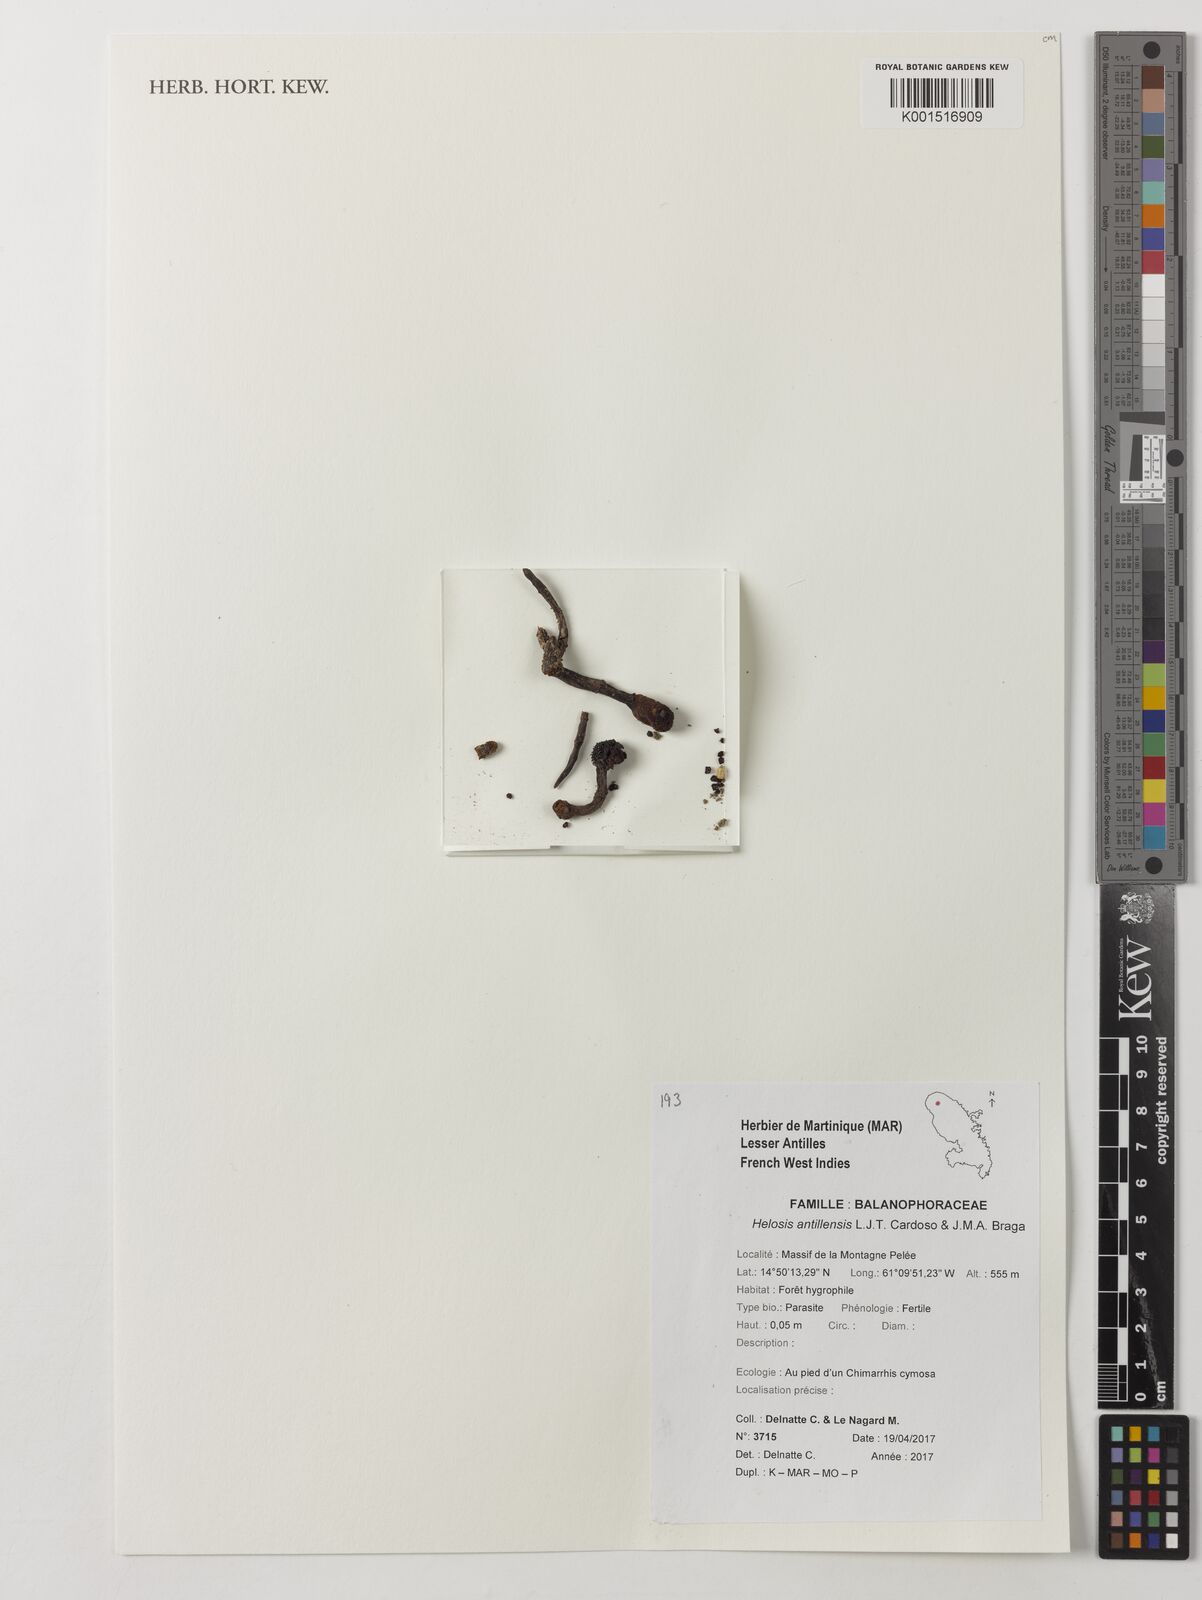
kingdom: Plantae
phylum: Tracheophyta
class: Magnoliopsida
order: Santalales
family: Balanophoraceae
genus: Helosis
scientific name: Helosis antillensis
